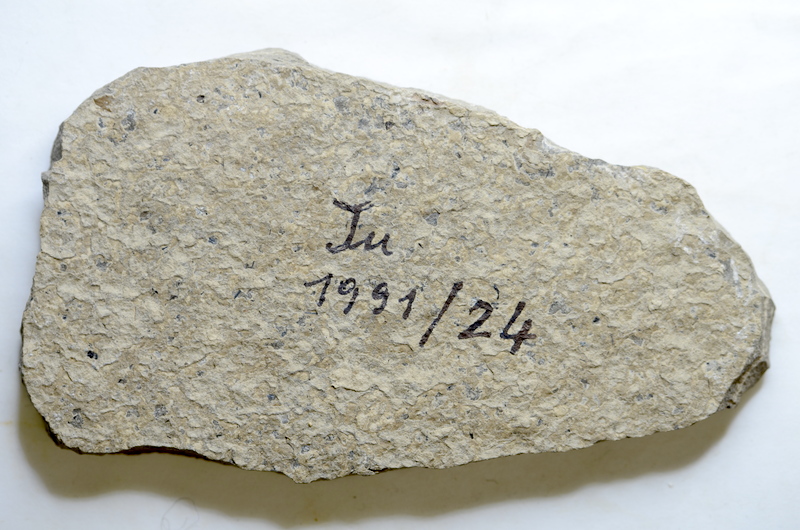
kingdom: Animalia
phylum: Chordata
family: Coccolepididae
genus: Coccolepis
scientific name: Coccolepis
